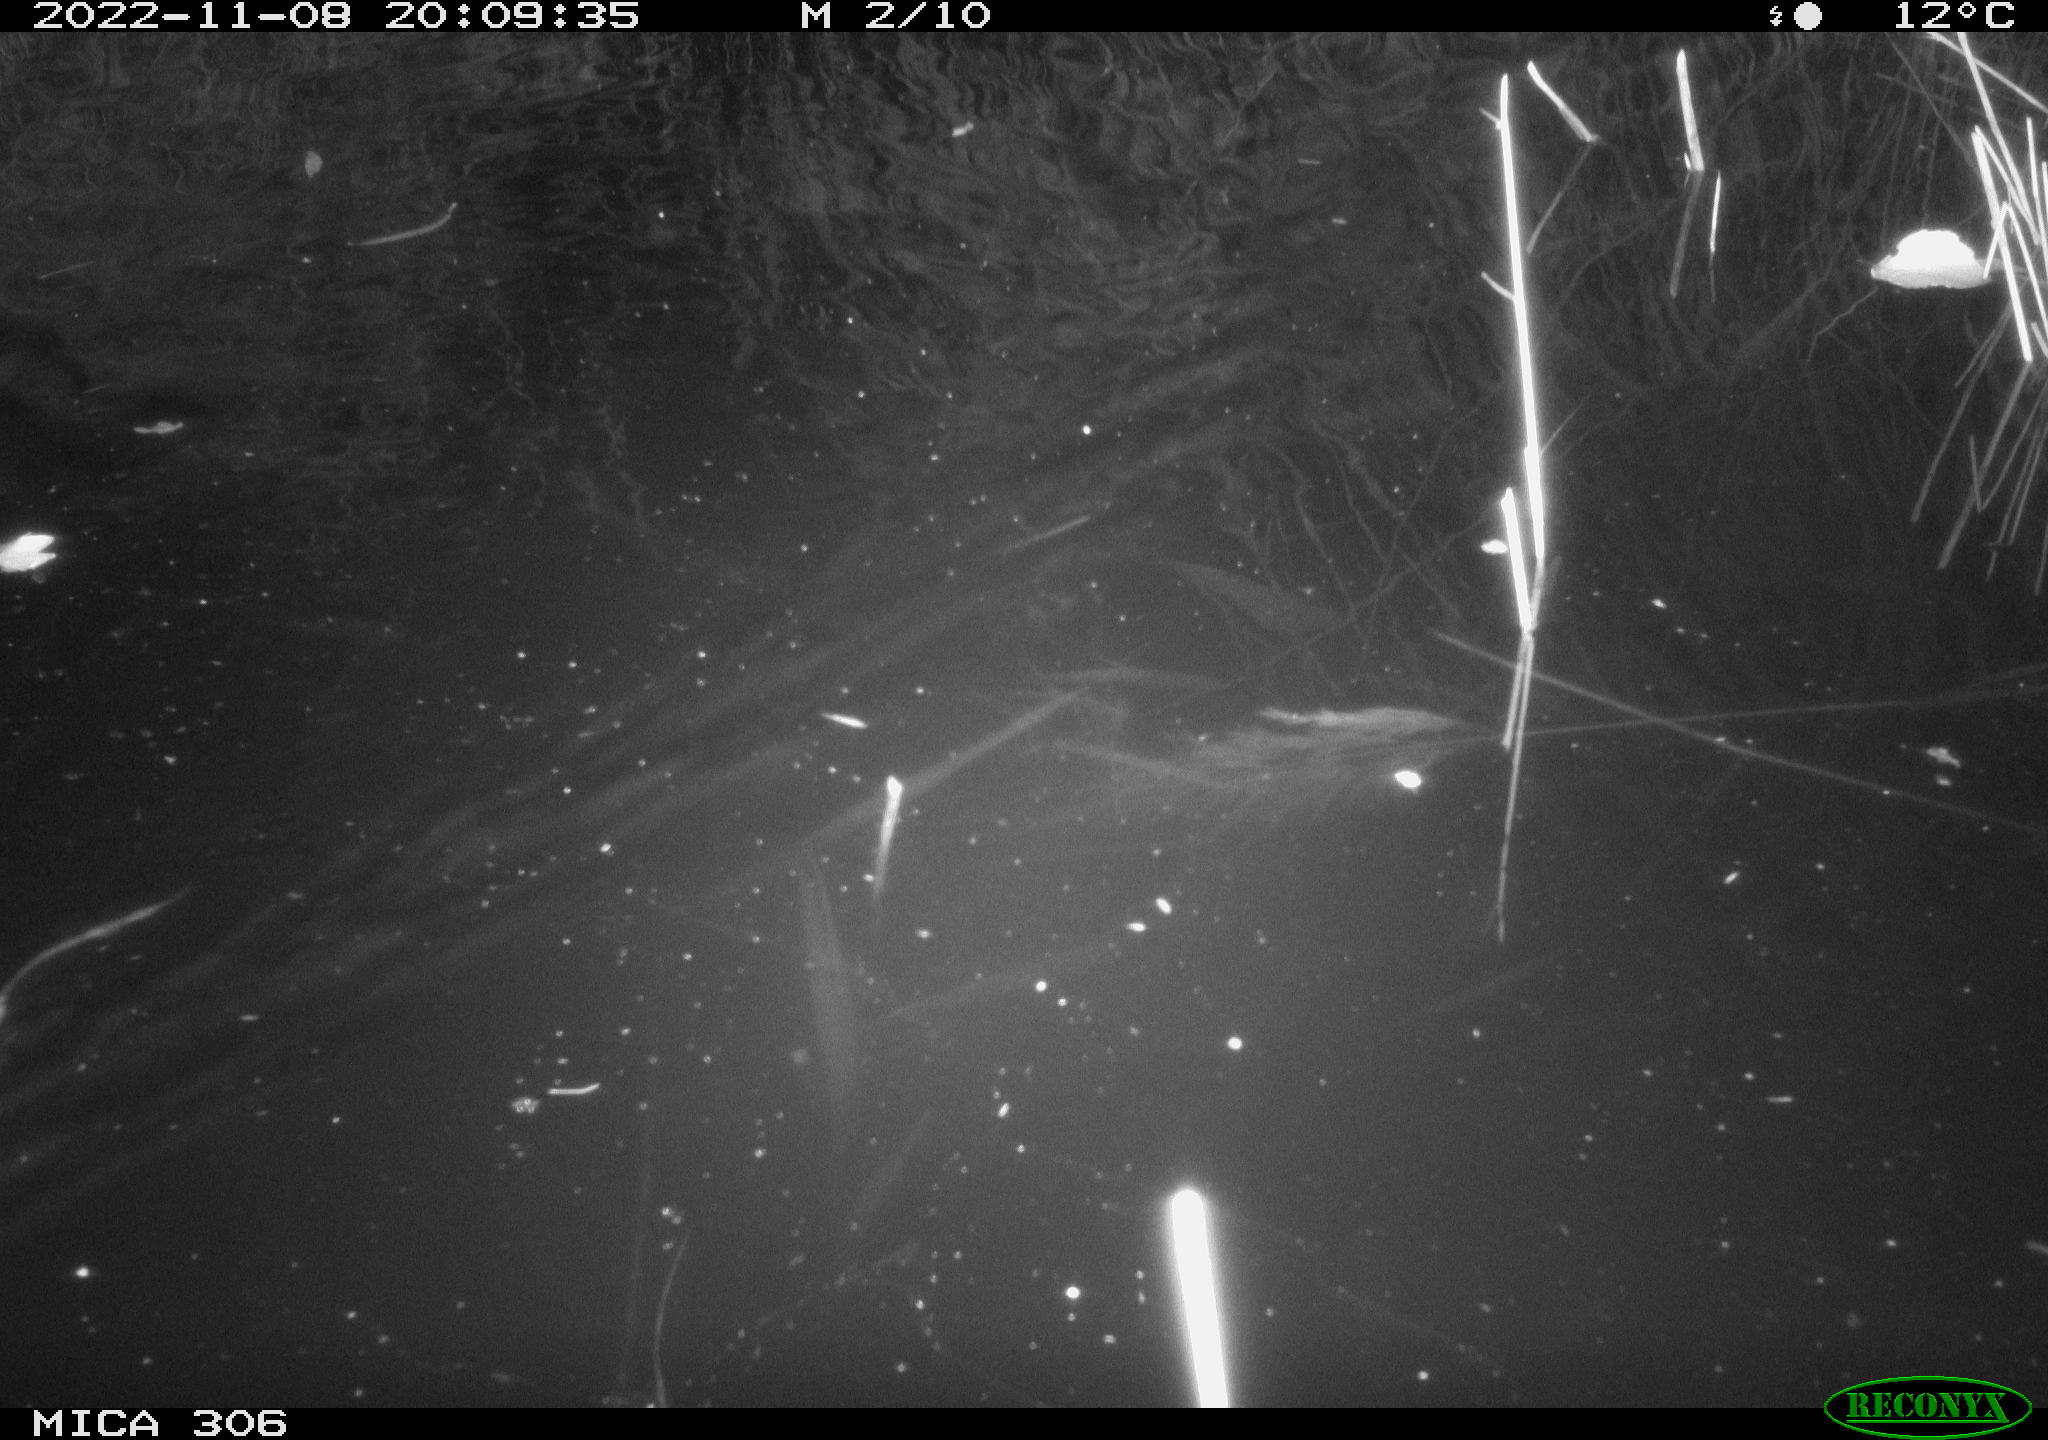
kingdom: Animalia
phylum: Chordata
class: Mammalia
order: Rodentia
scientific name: Rodentia
